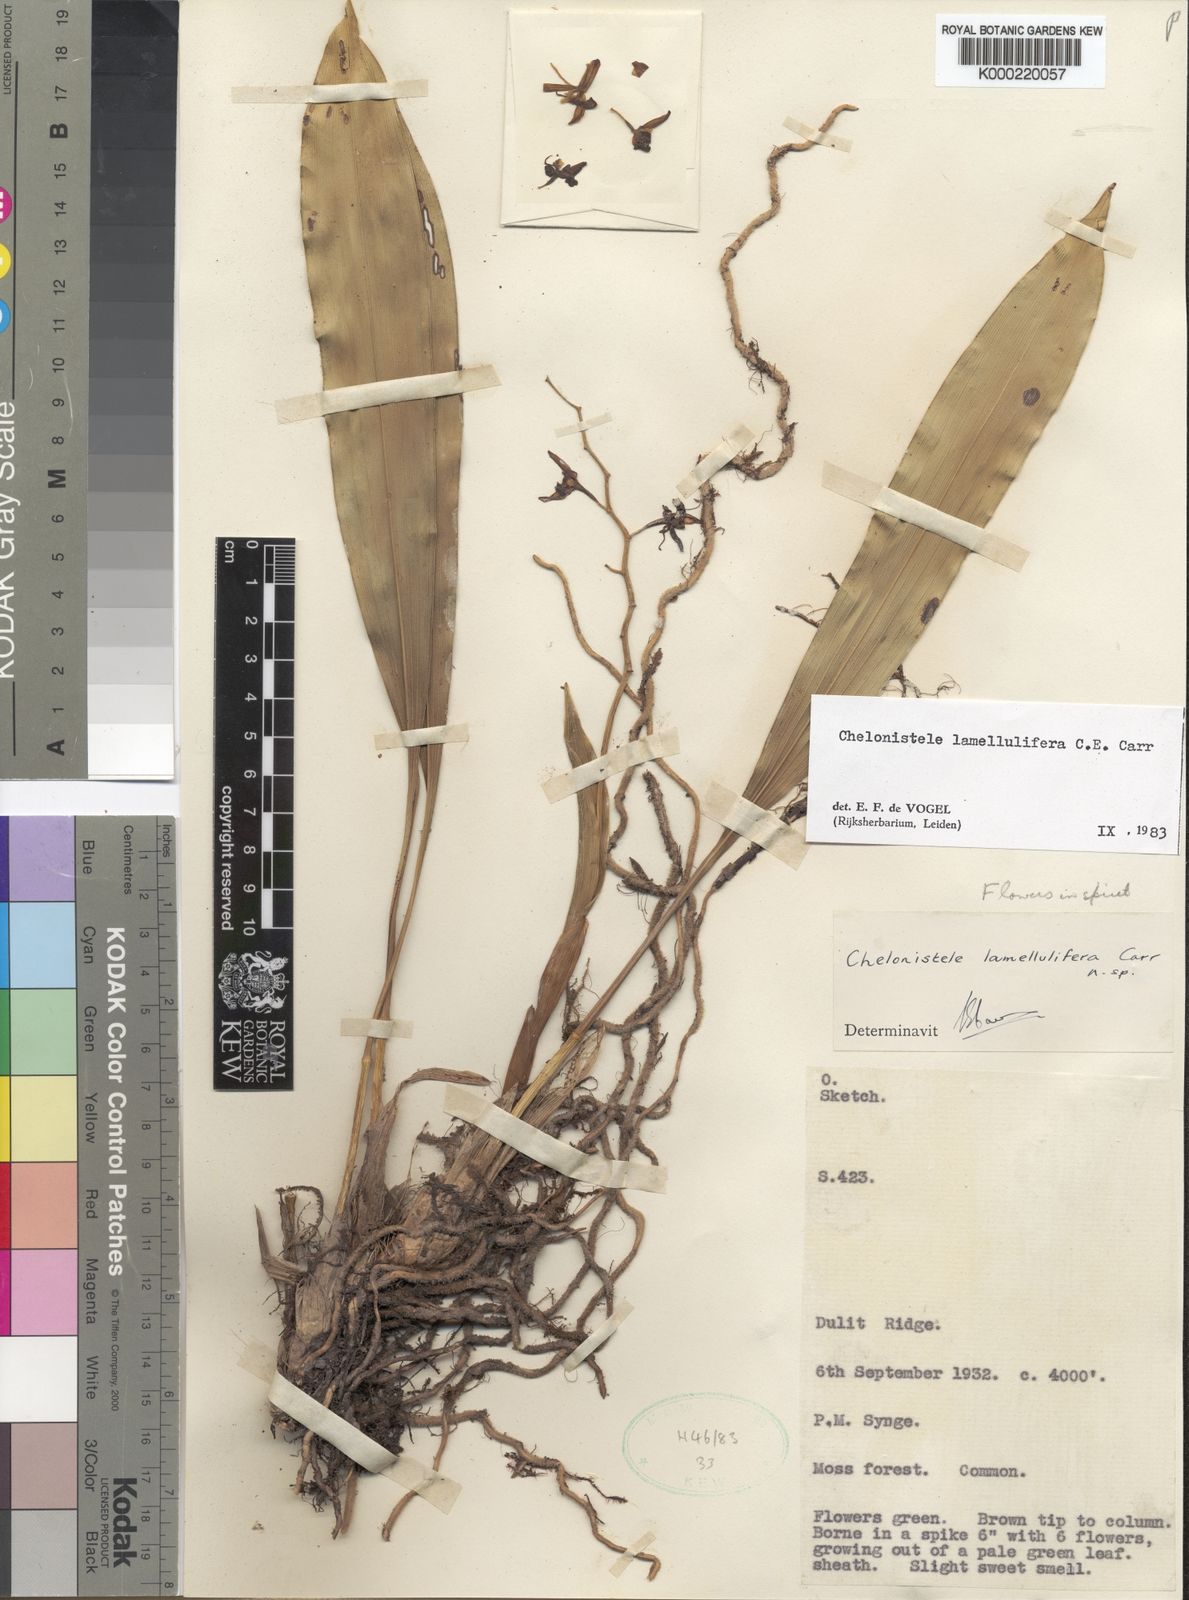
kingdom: Plantae
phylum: Tracheophyta
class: Liliopsida
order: Asparagales
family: Orchidaceae
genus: Coelogyne
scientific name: Coelogyne lamellulifera
